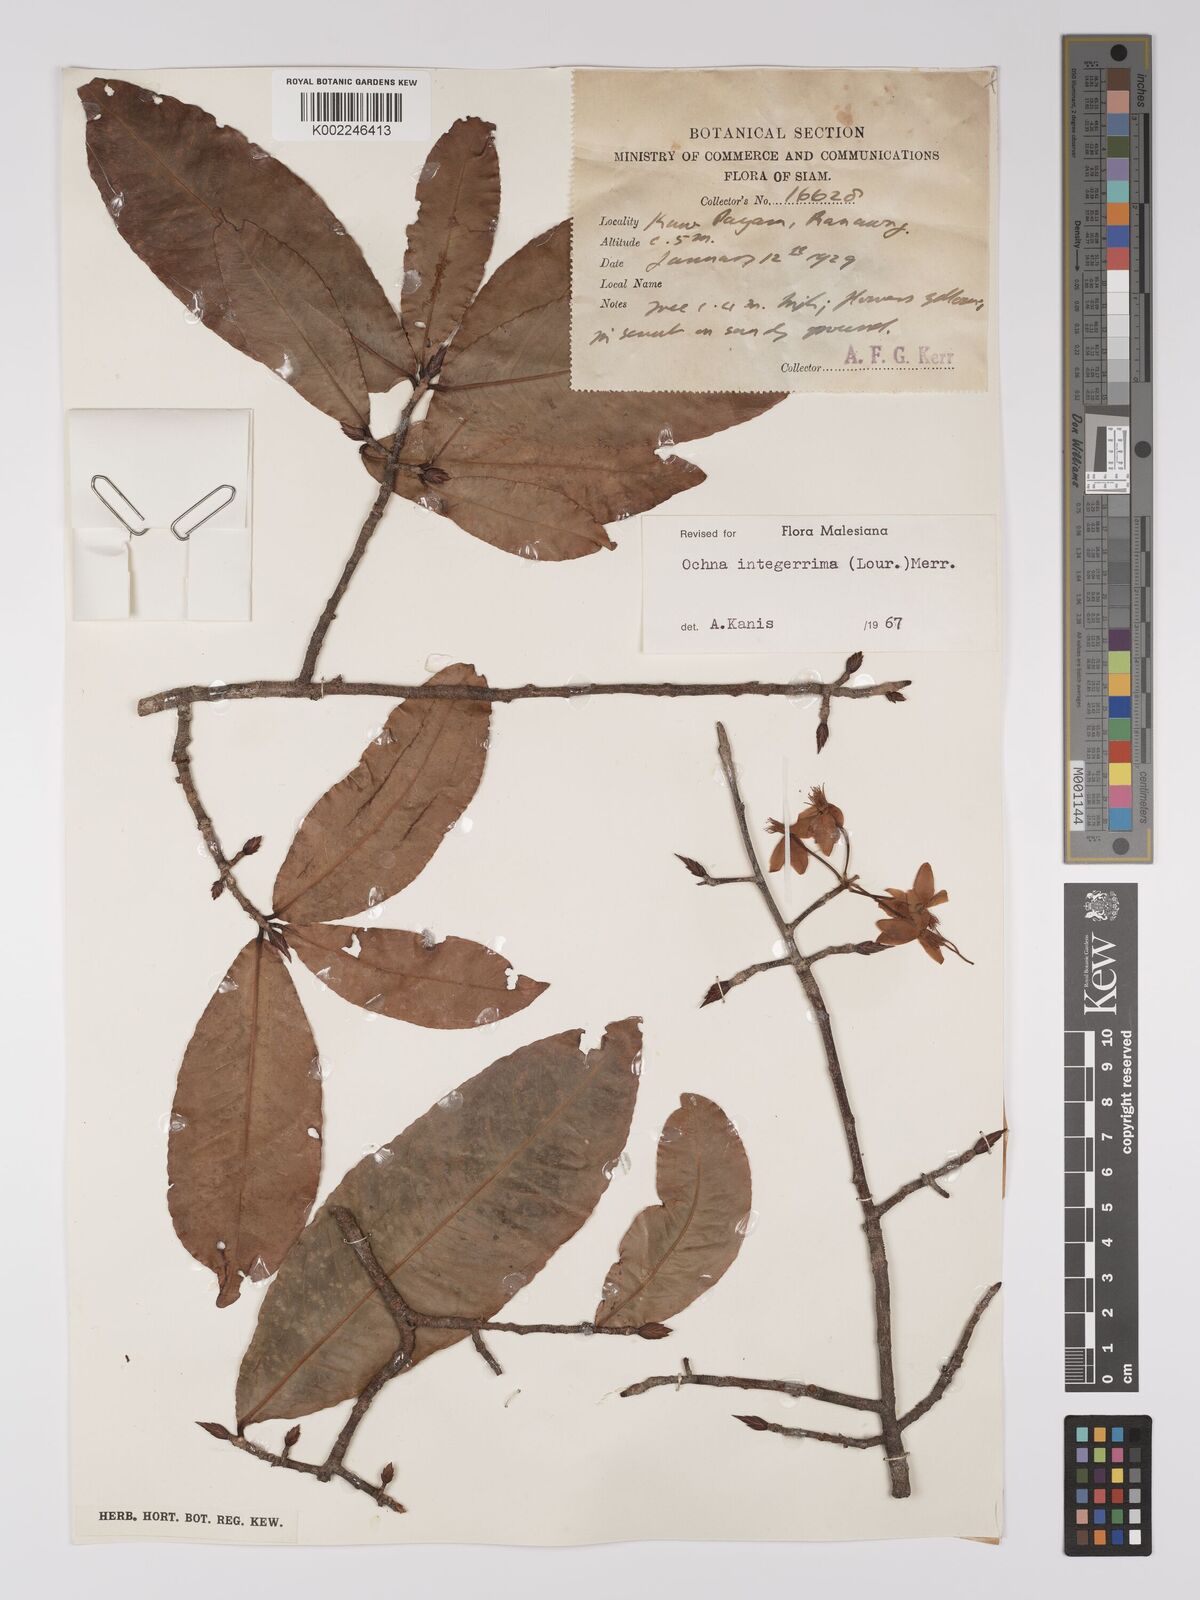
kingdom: Plantae
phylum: Tracheophyta
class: Magnoliopsida
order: Malpighiales
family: Ochnaceae
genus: Ochna
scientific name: Ochna integerrima
